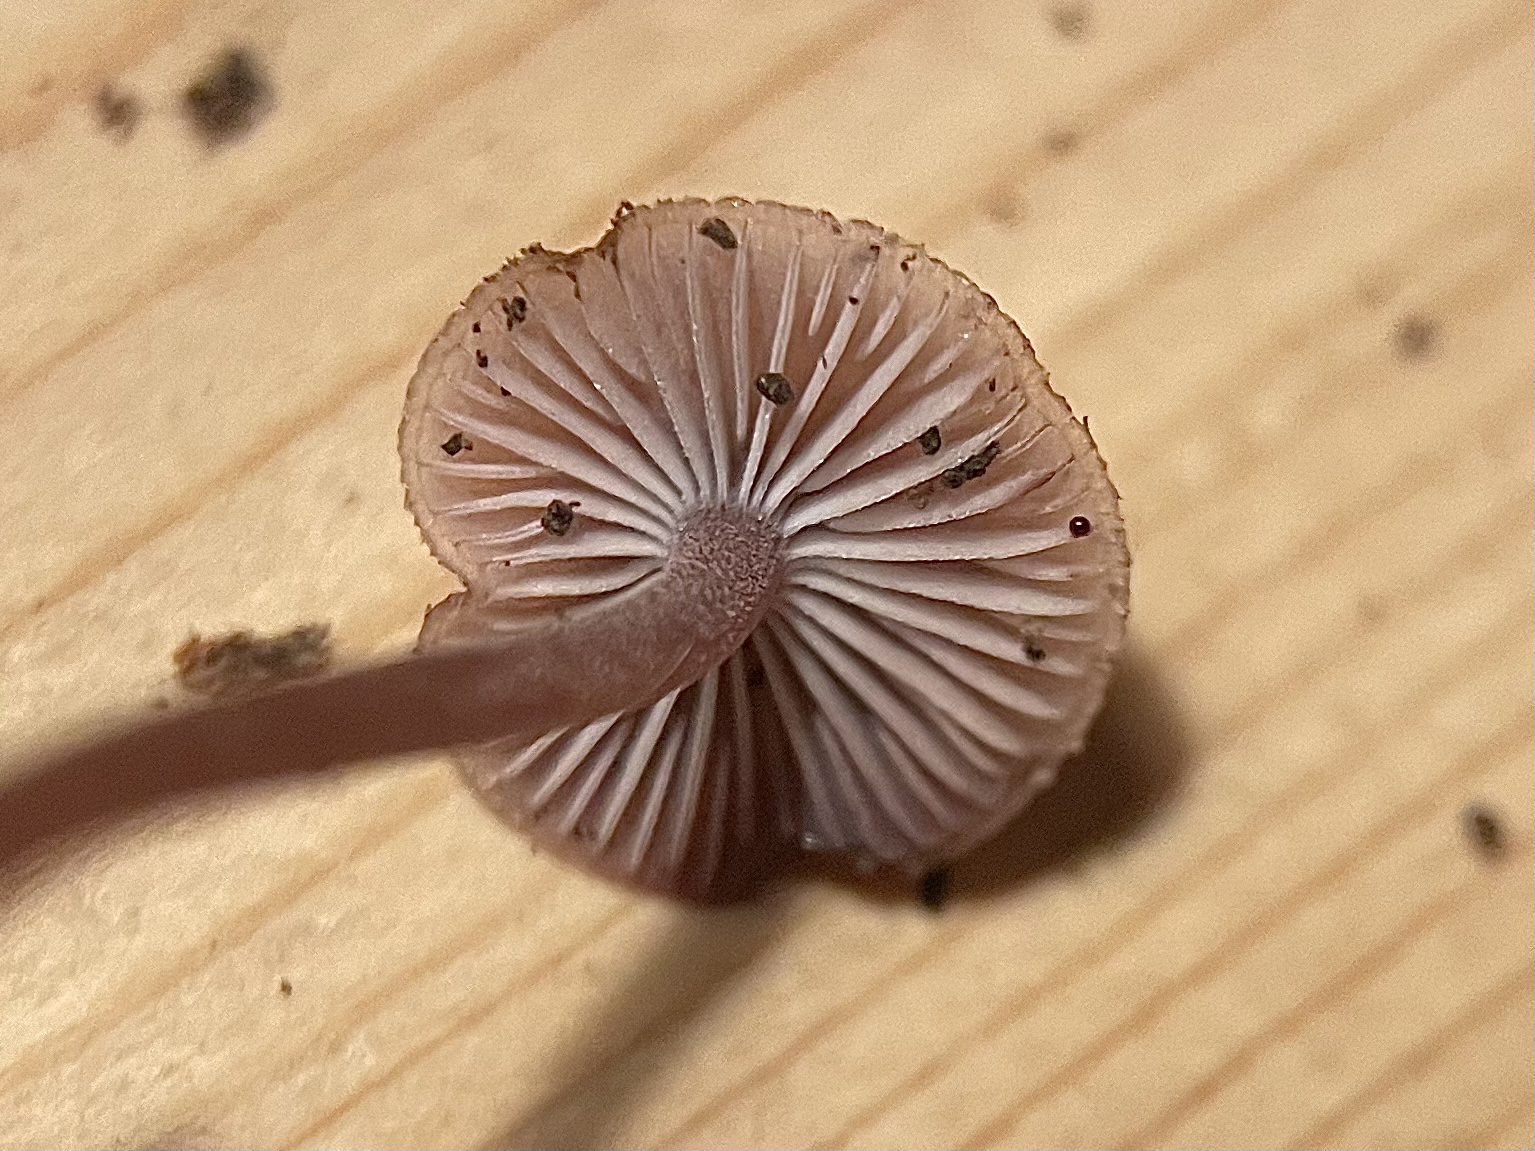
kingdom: Fungi
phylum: Basidiomycota
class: Agaricomycetes
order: Agaricales
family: Mycenaceae
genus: Mycena
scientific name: Mycena haematopus
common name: blødende huesvamp
